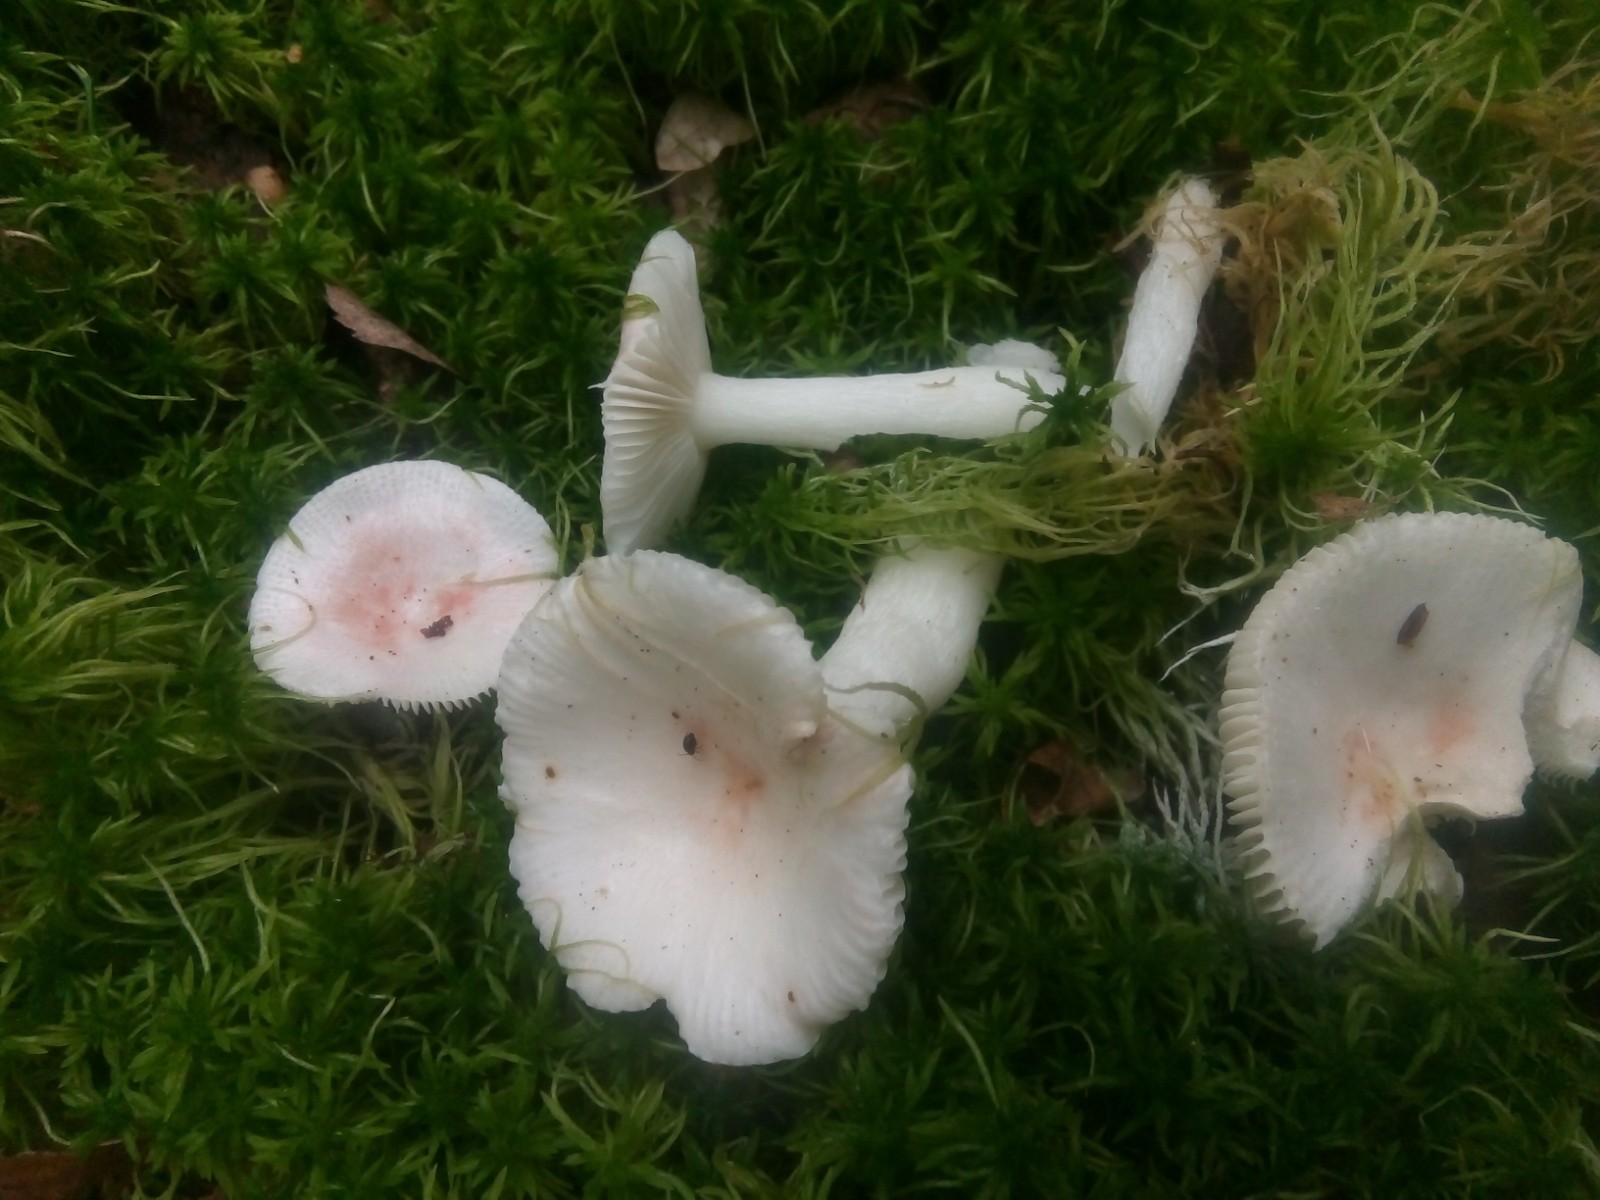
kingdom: Fungi
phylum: Basidiomycota
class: Agaricomycetes
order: Russulales
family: Russulaceae
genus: Russula
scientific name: Russula betularum
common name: bleg gift-skørhat
